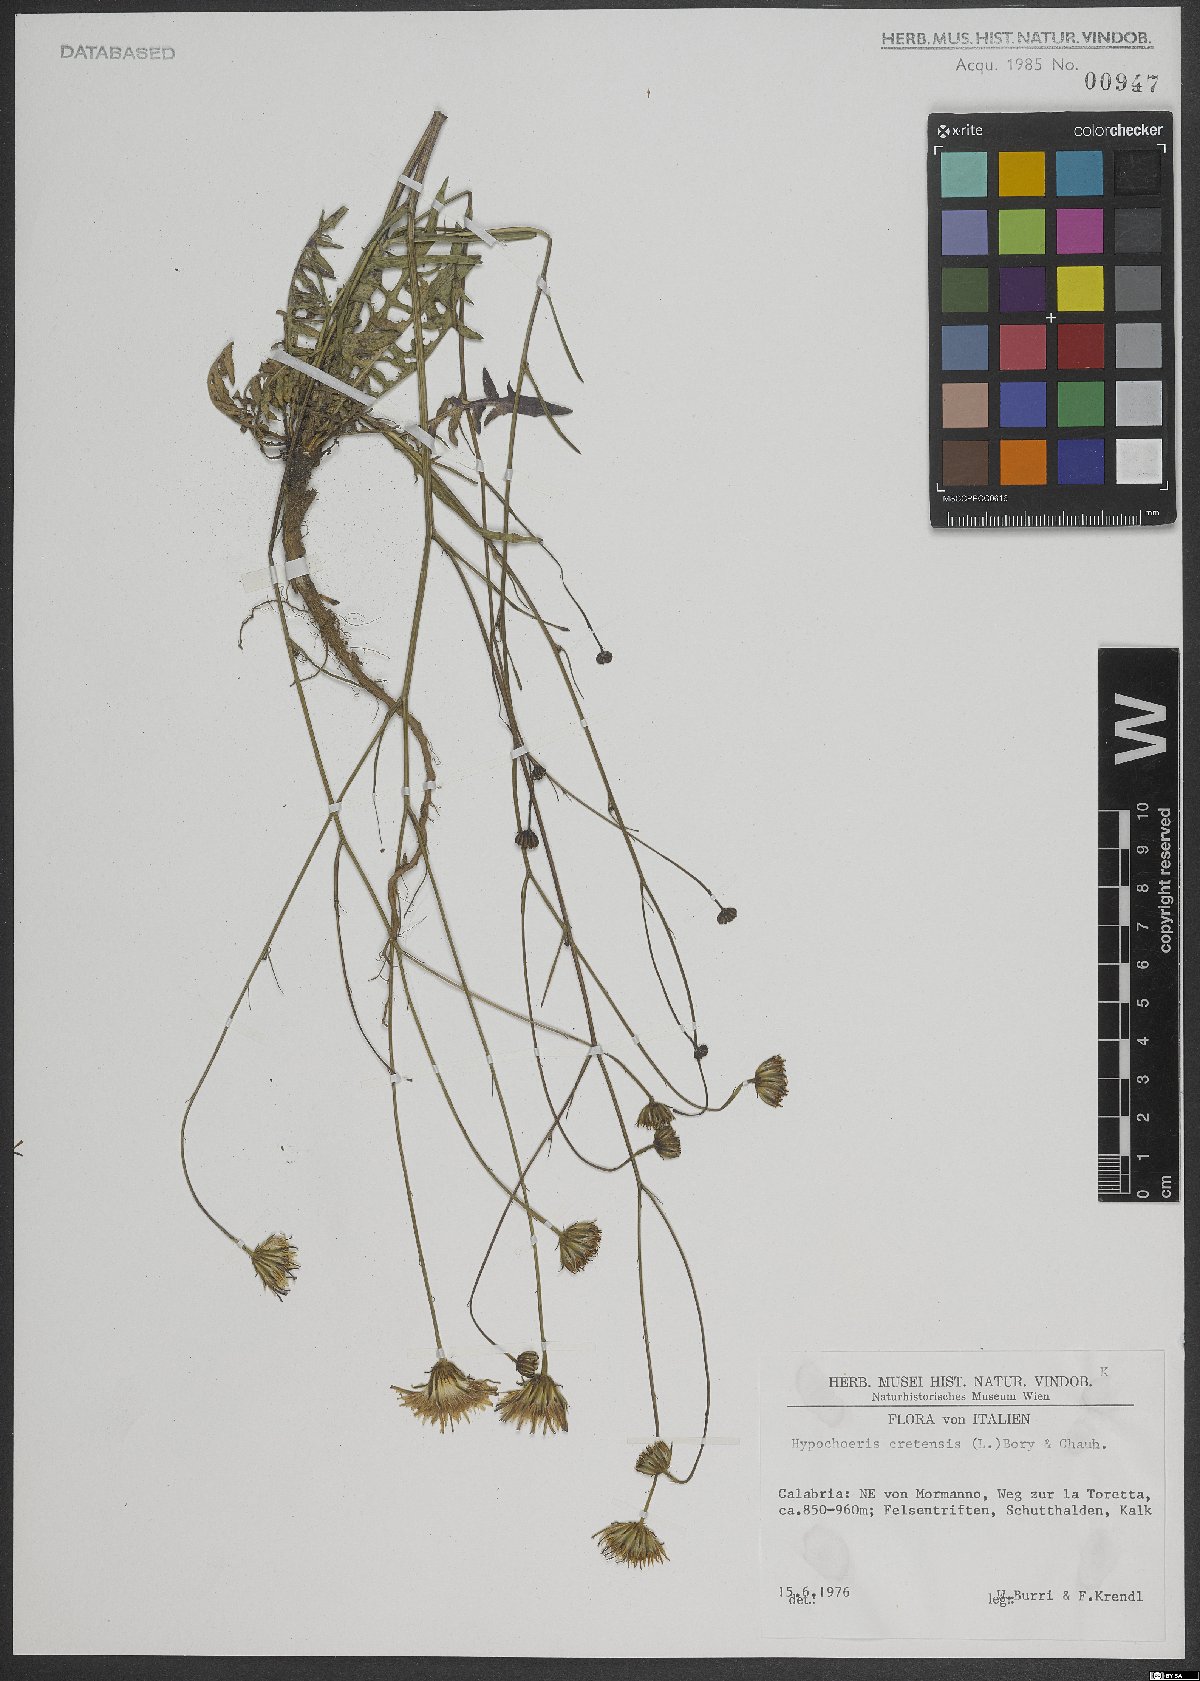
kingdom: Plantae
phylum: Tracheophyta
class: Magnoliopsida
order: Asterales
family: Asteraceae
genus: Hypochaeris
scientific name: Hypochaeris cretensis
